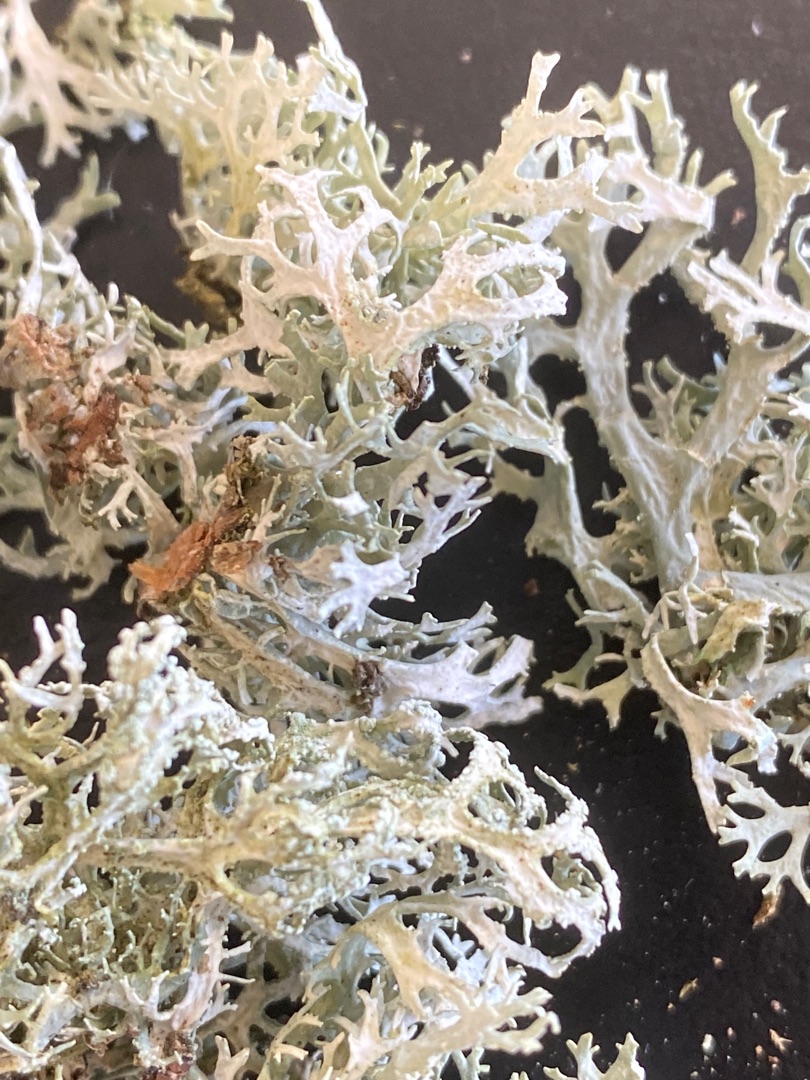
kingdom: Fungi
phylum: Ascomycota
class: Lecanoromycetes
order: Lecanorales
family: Parmeliaceae
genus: Evernia
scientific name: Evernia prunastri
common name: Almindelig slåenlav
